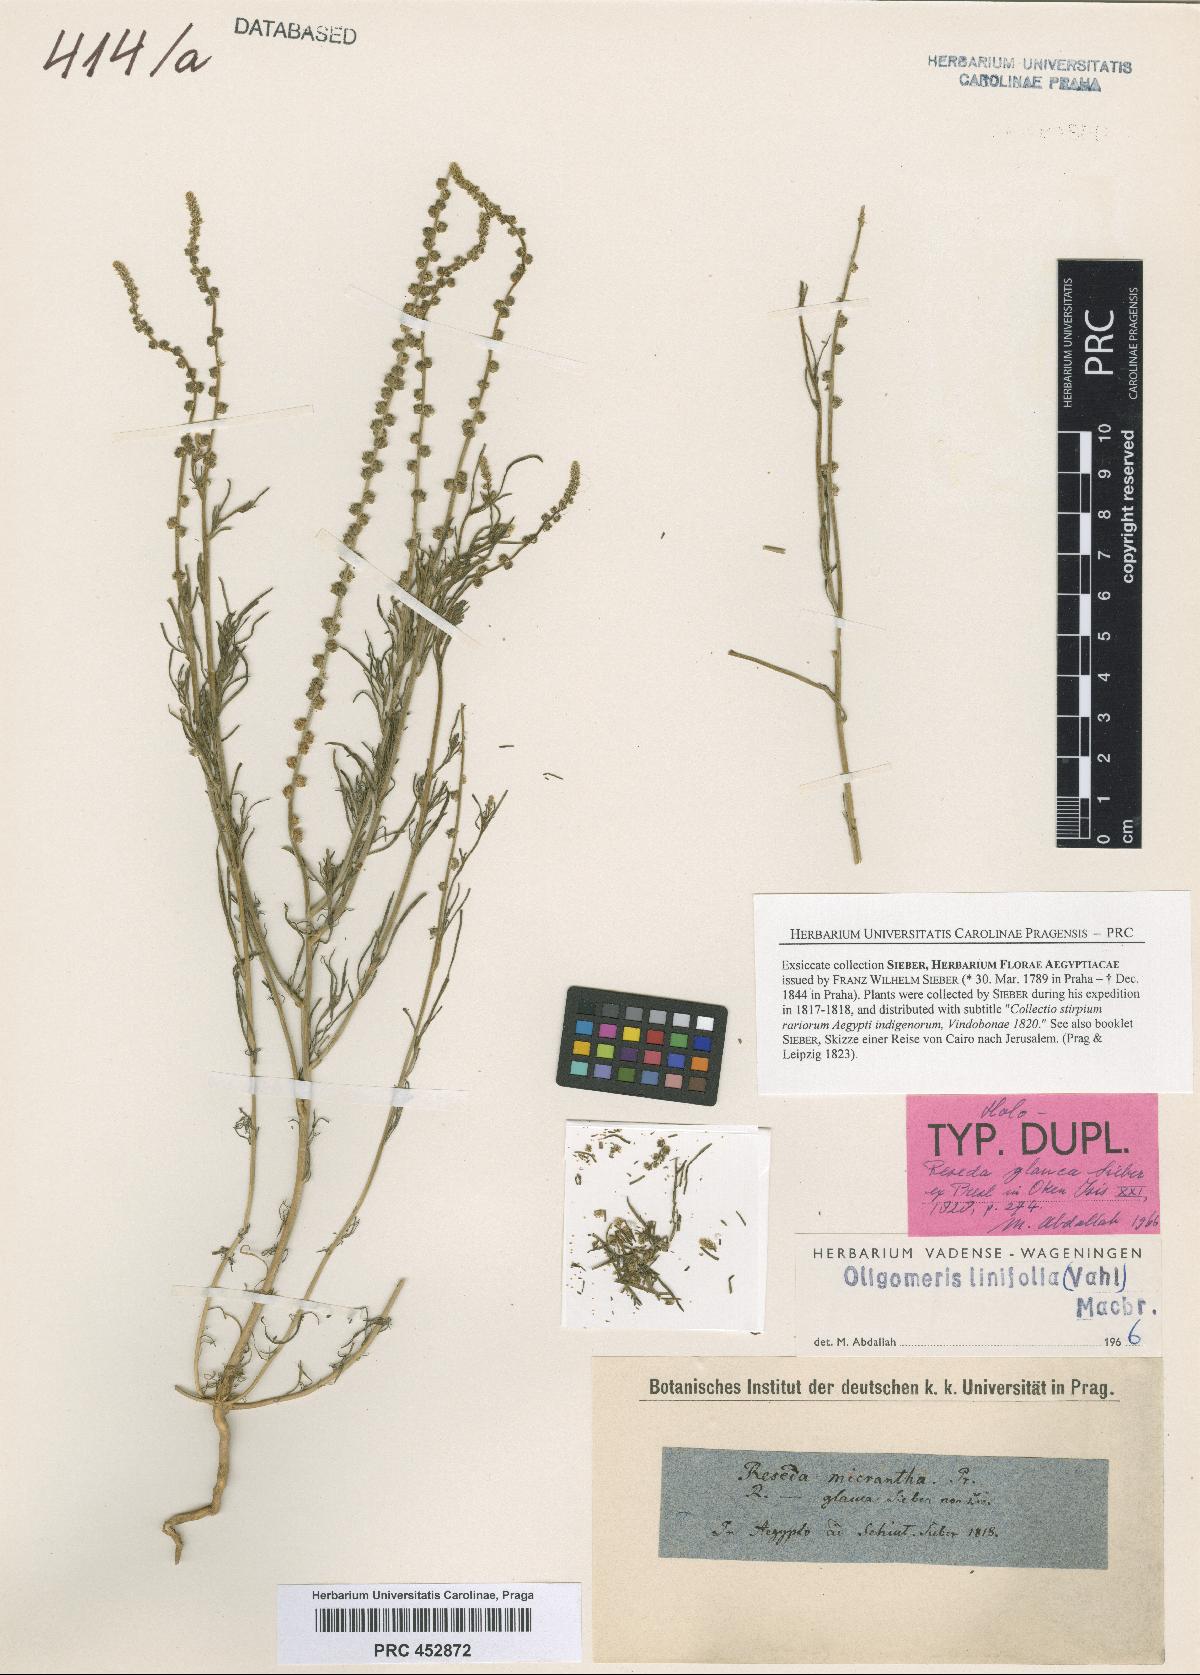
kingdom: Plantae
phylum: Tracheophyta
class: Magnoliopsida
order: Brassicales
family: Resedaceae
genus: Oligomeris
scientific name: Oligomeris linifolia
